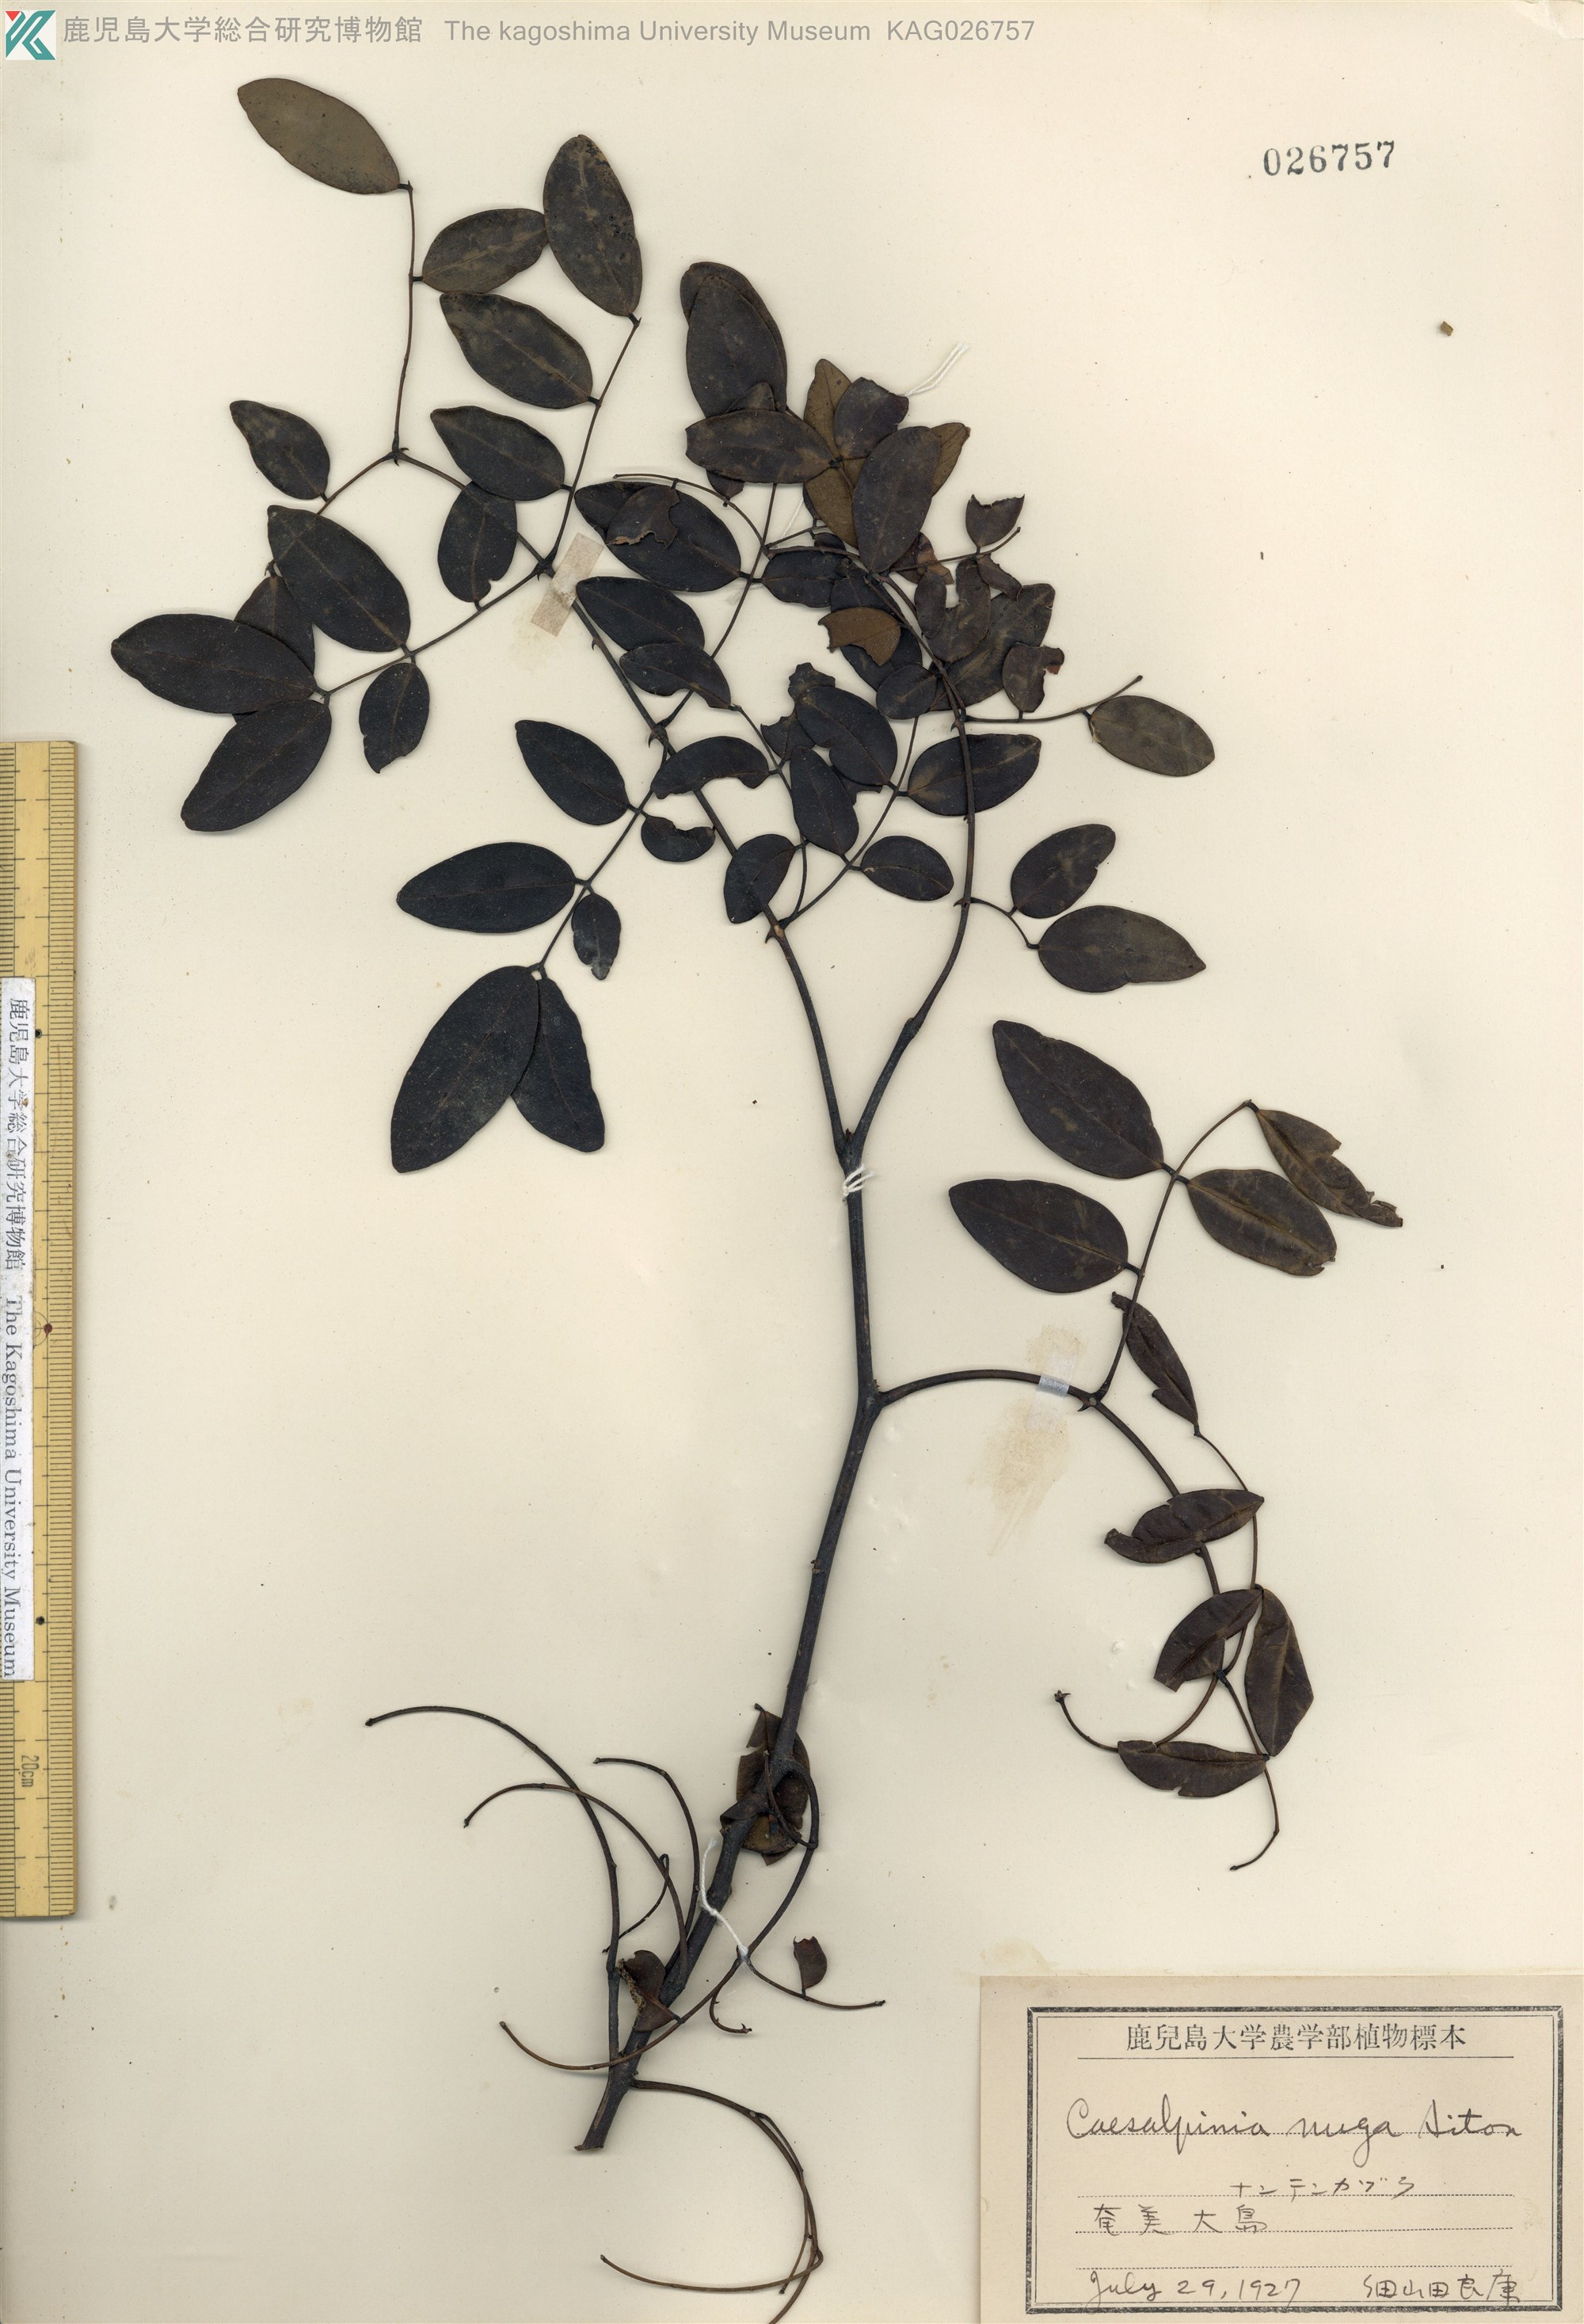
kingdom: Plantae
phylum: Tracheophyta
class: Magnoliopsida
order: Fabales
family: Fabaceae
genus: Caesalpinia
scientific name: Caesalpinia Ticanto crista
